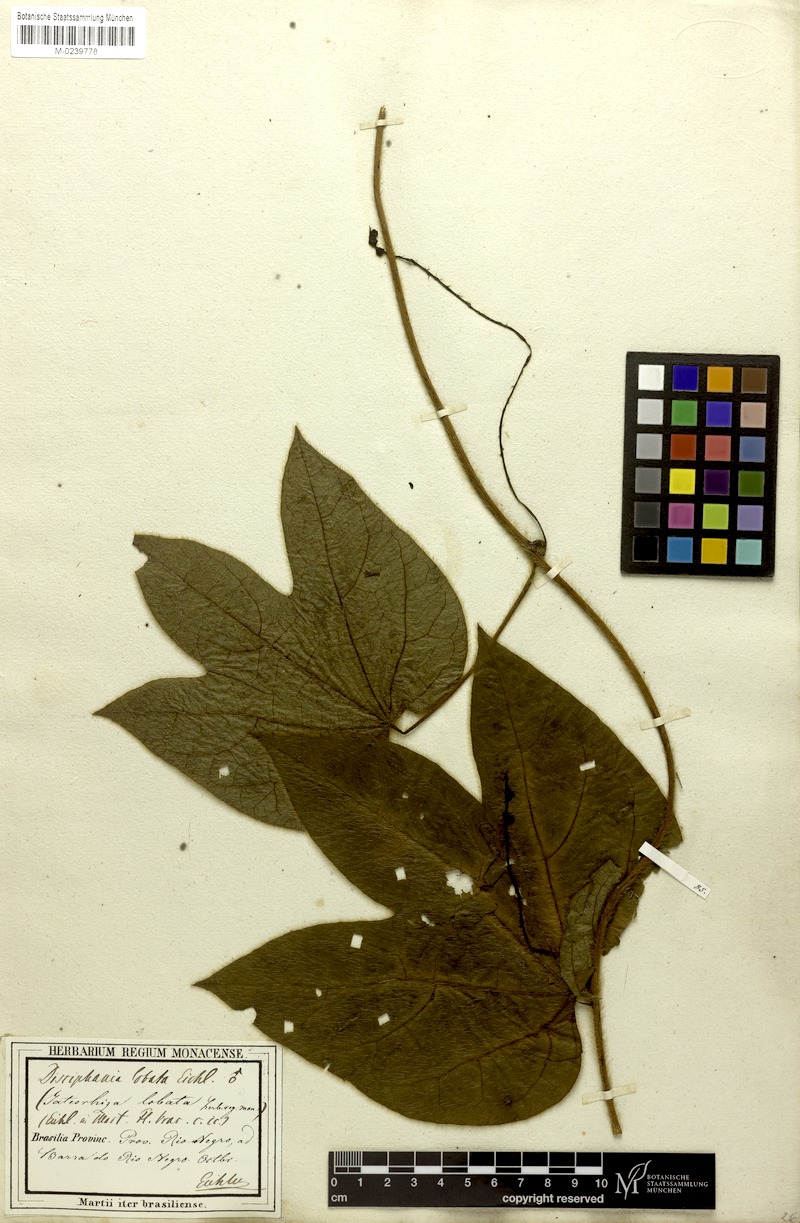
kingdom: Plantae
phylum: Tracheophyta
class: Magnoliopsida
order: Ranunculales
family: Menispermaceae
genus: Disciphania
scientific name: Disciphania lobata
